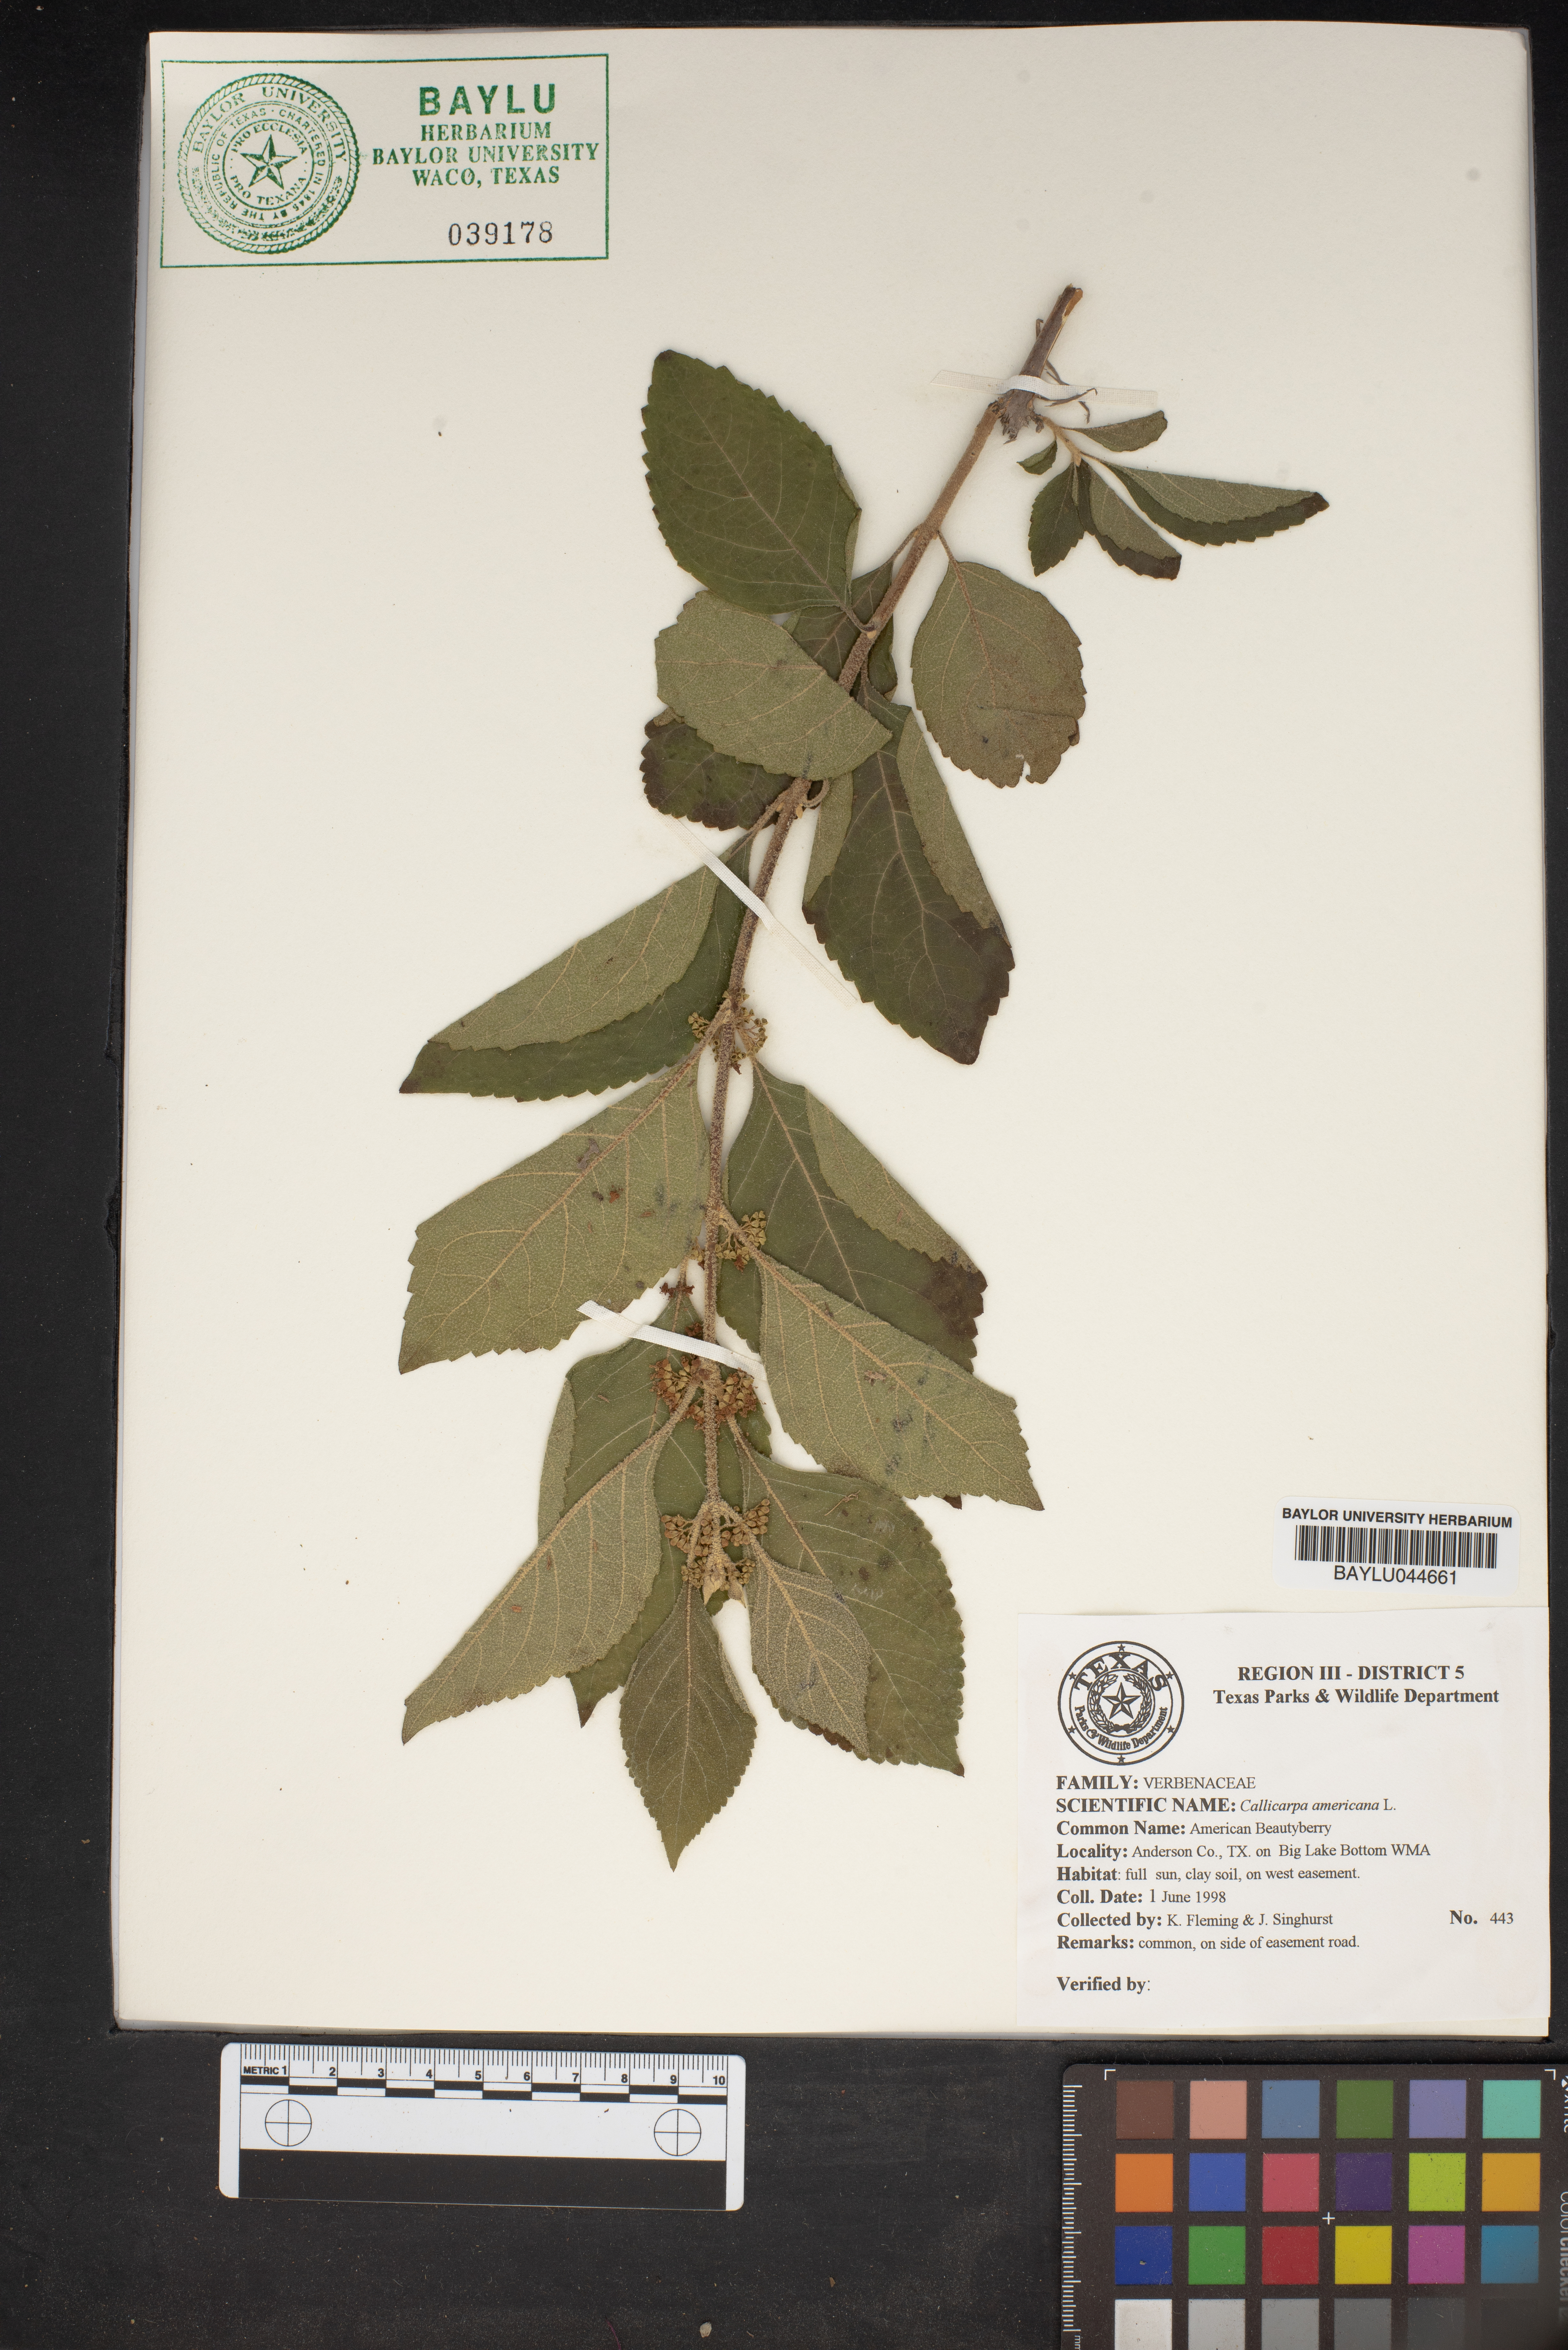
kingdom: Plantae
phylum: Tracheophyta
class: Magnoliopsida
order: Lamiales
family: Lamiaceae
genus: Callicarpa
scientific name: Callicarpa americana
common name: American beautyberry
